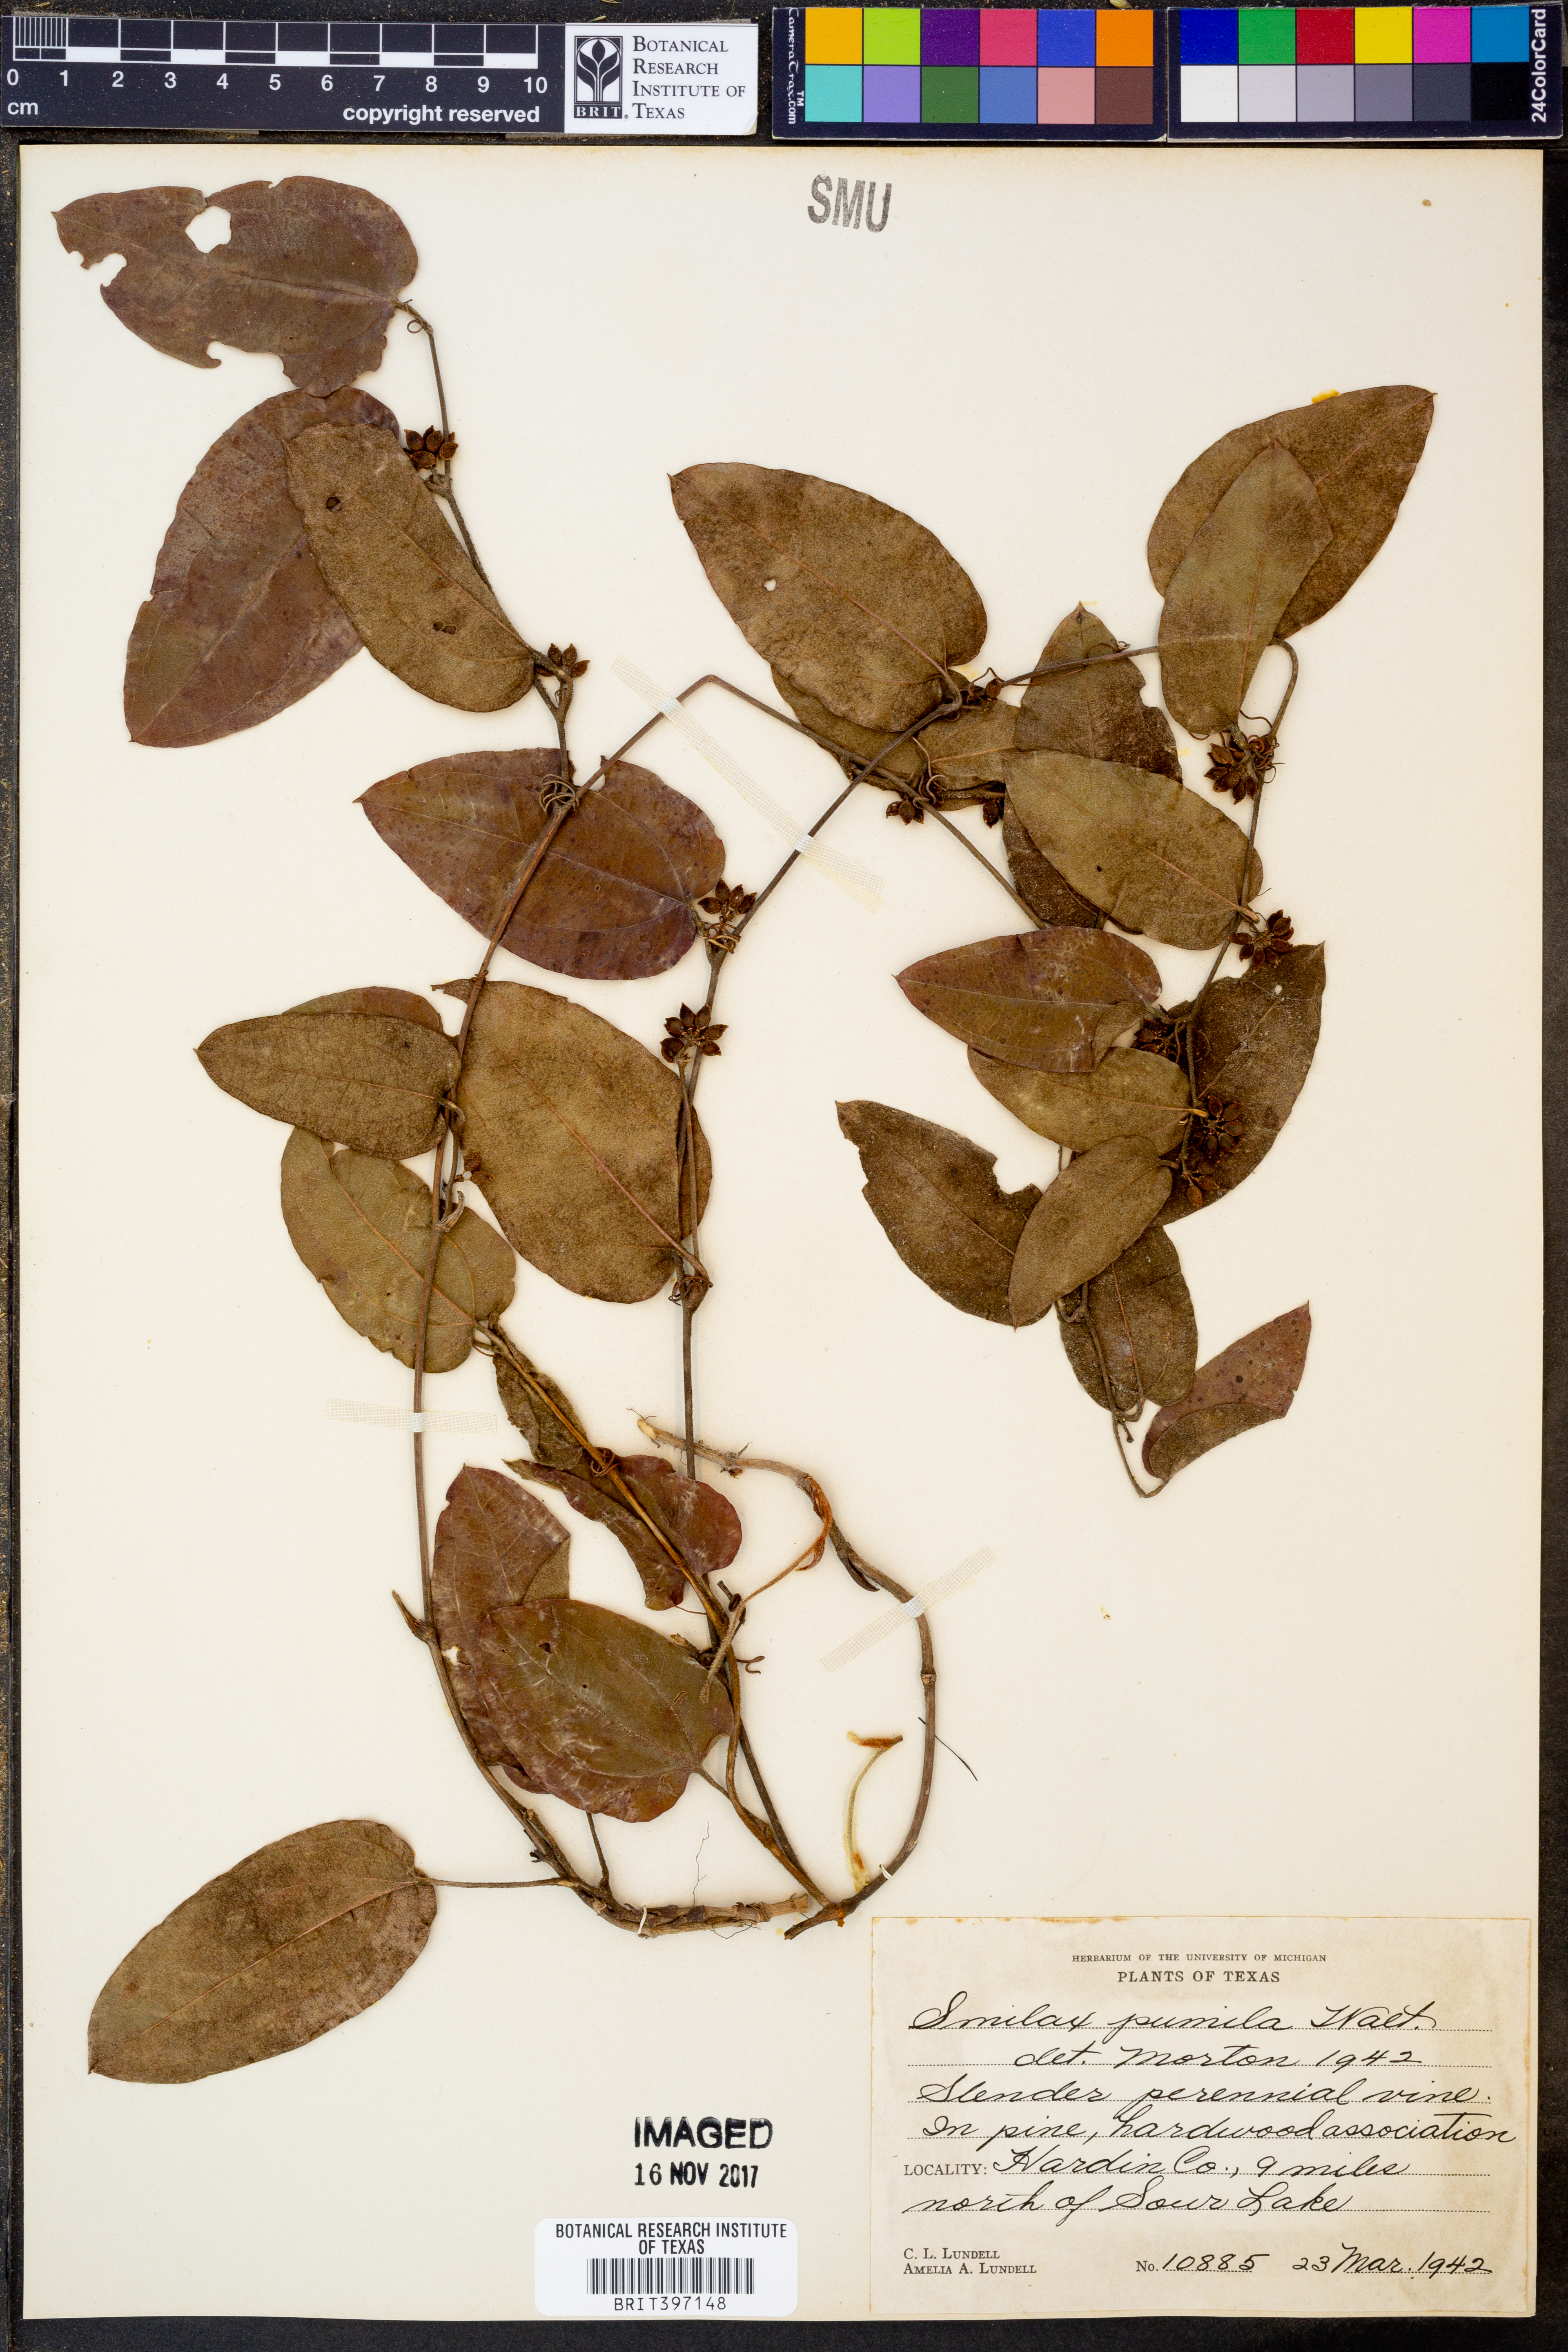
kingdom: Plantae
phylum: Tracheophyta
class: Liliopsida
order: Liliales
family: Smilacaceae
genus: Smilax
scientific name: Smilax pumila
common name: Sarsaparilla-vine
